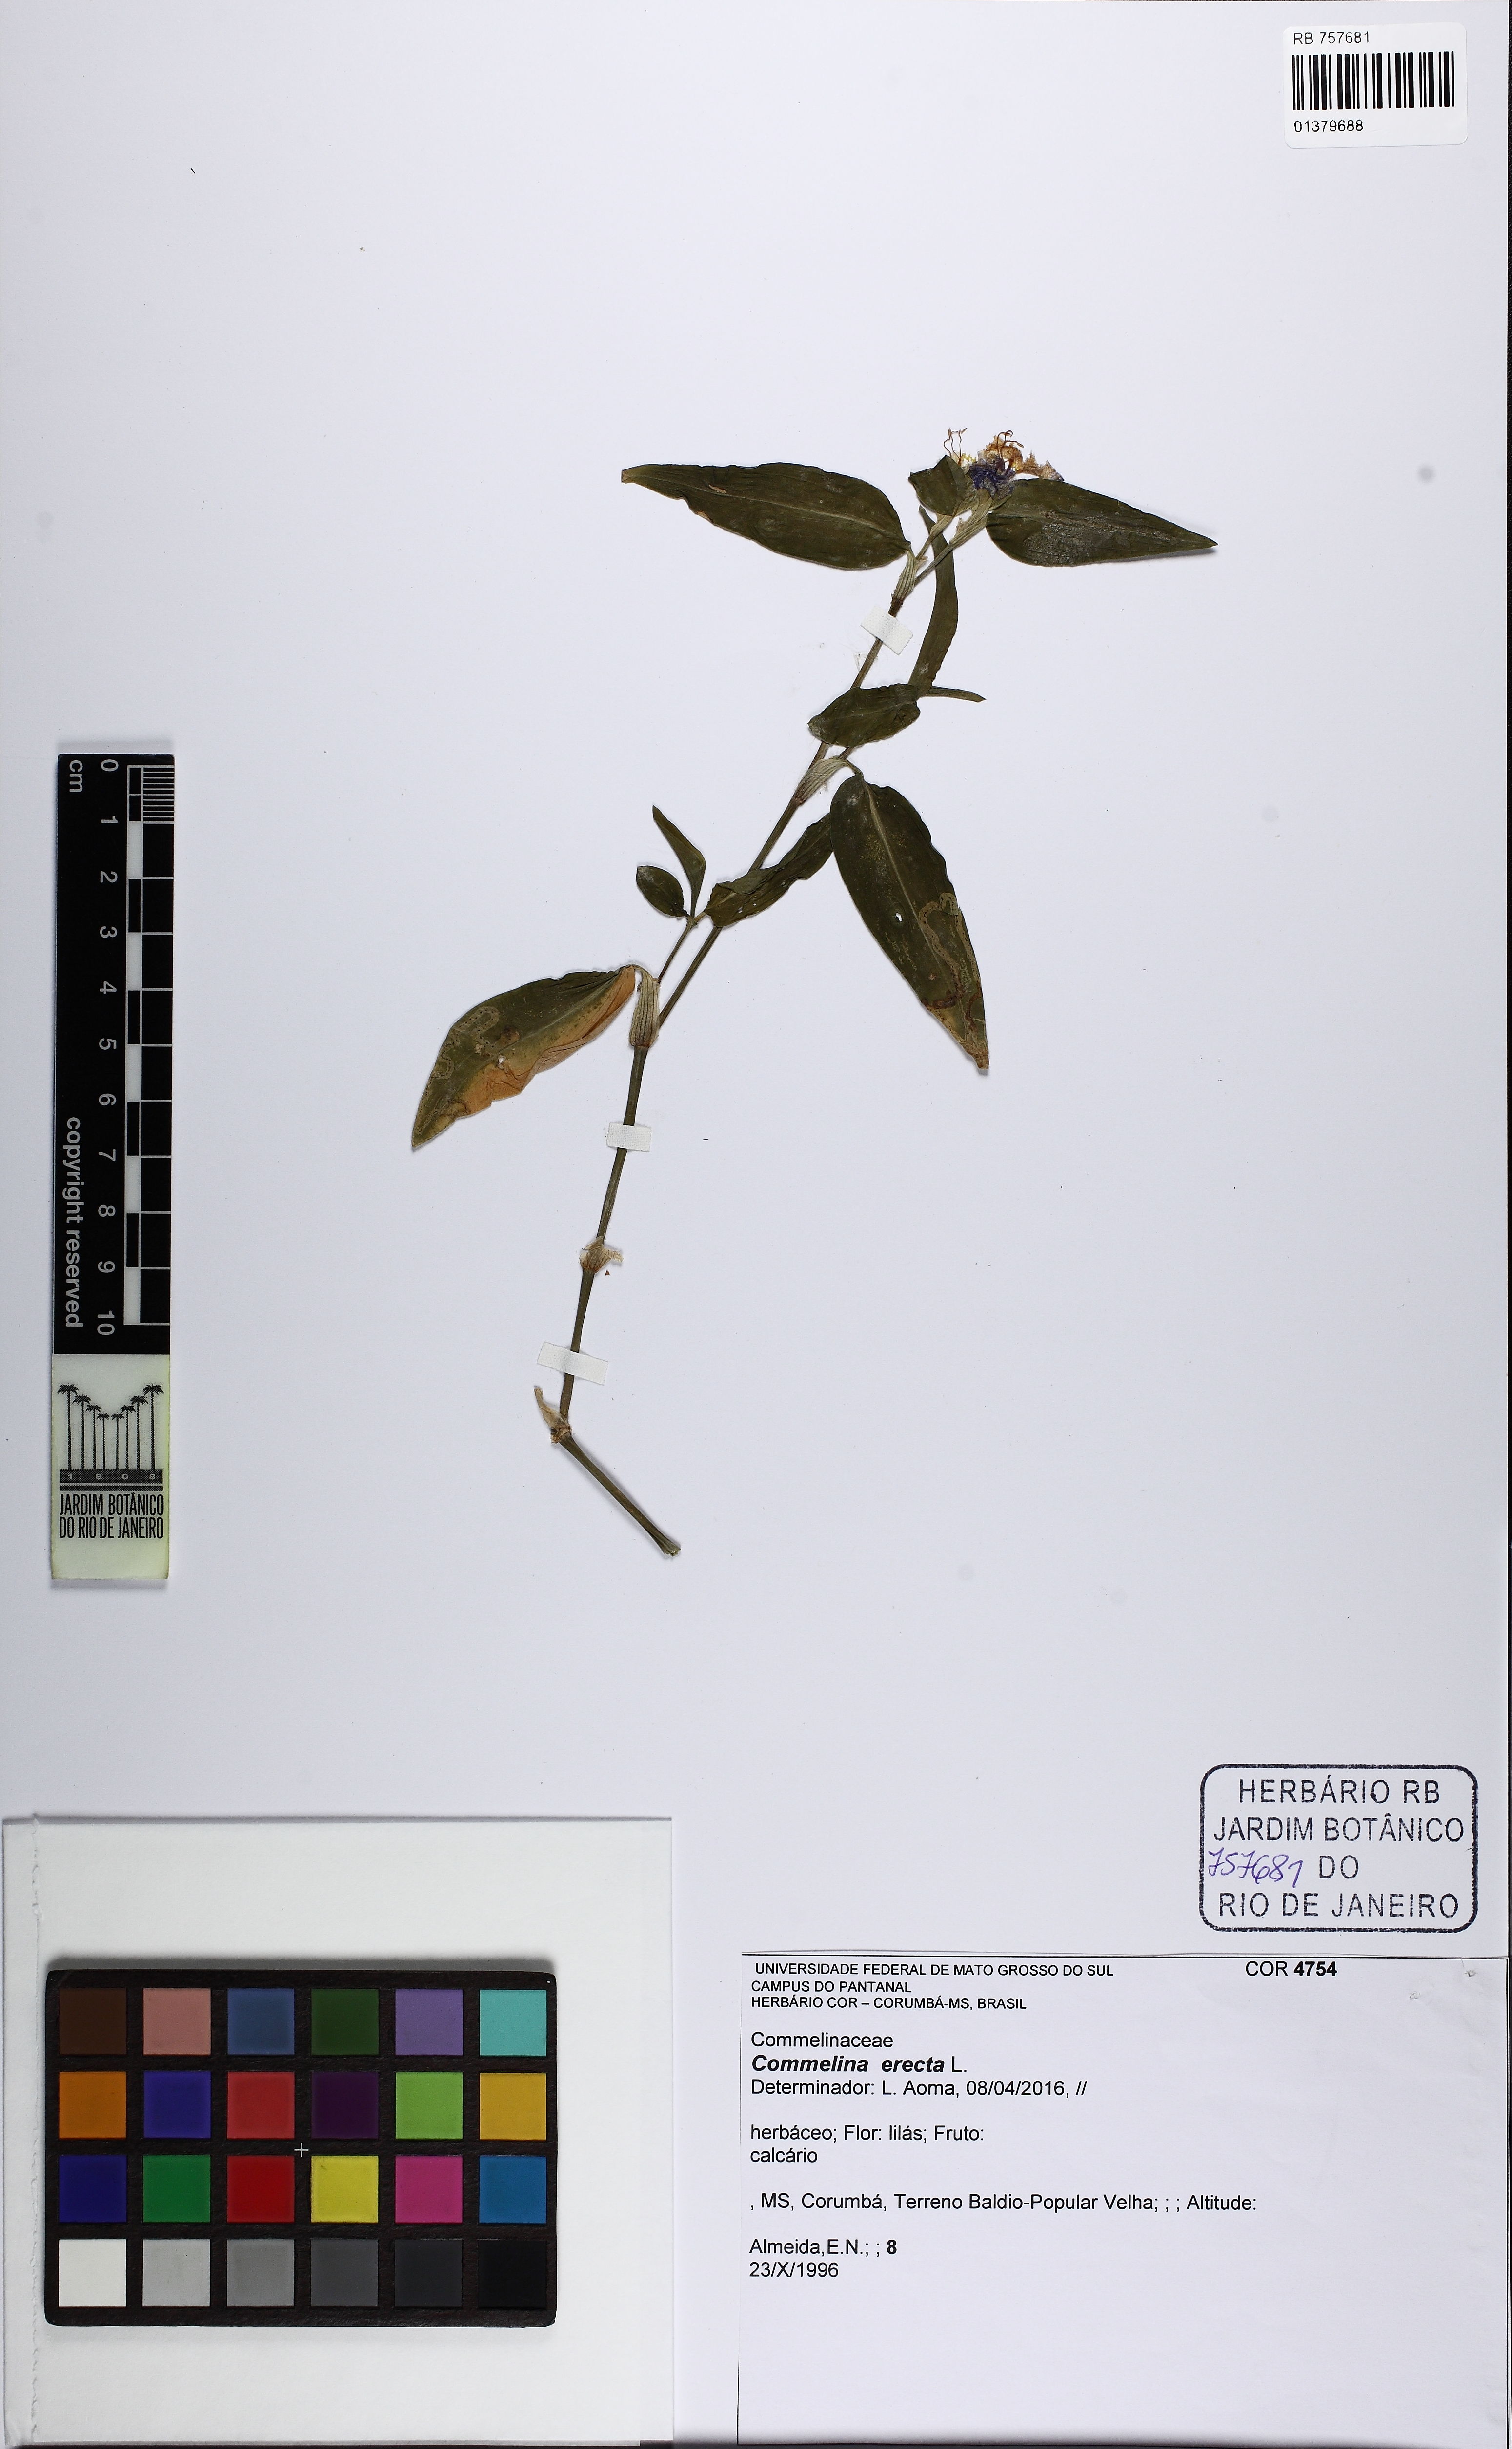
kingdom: Plantae
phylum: Tracheophyta
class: Liliopsida
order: Commelinales
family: Commelinaceae
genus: Commelina
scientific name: Commelina erecta
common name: Blousel blommetjie
